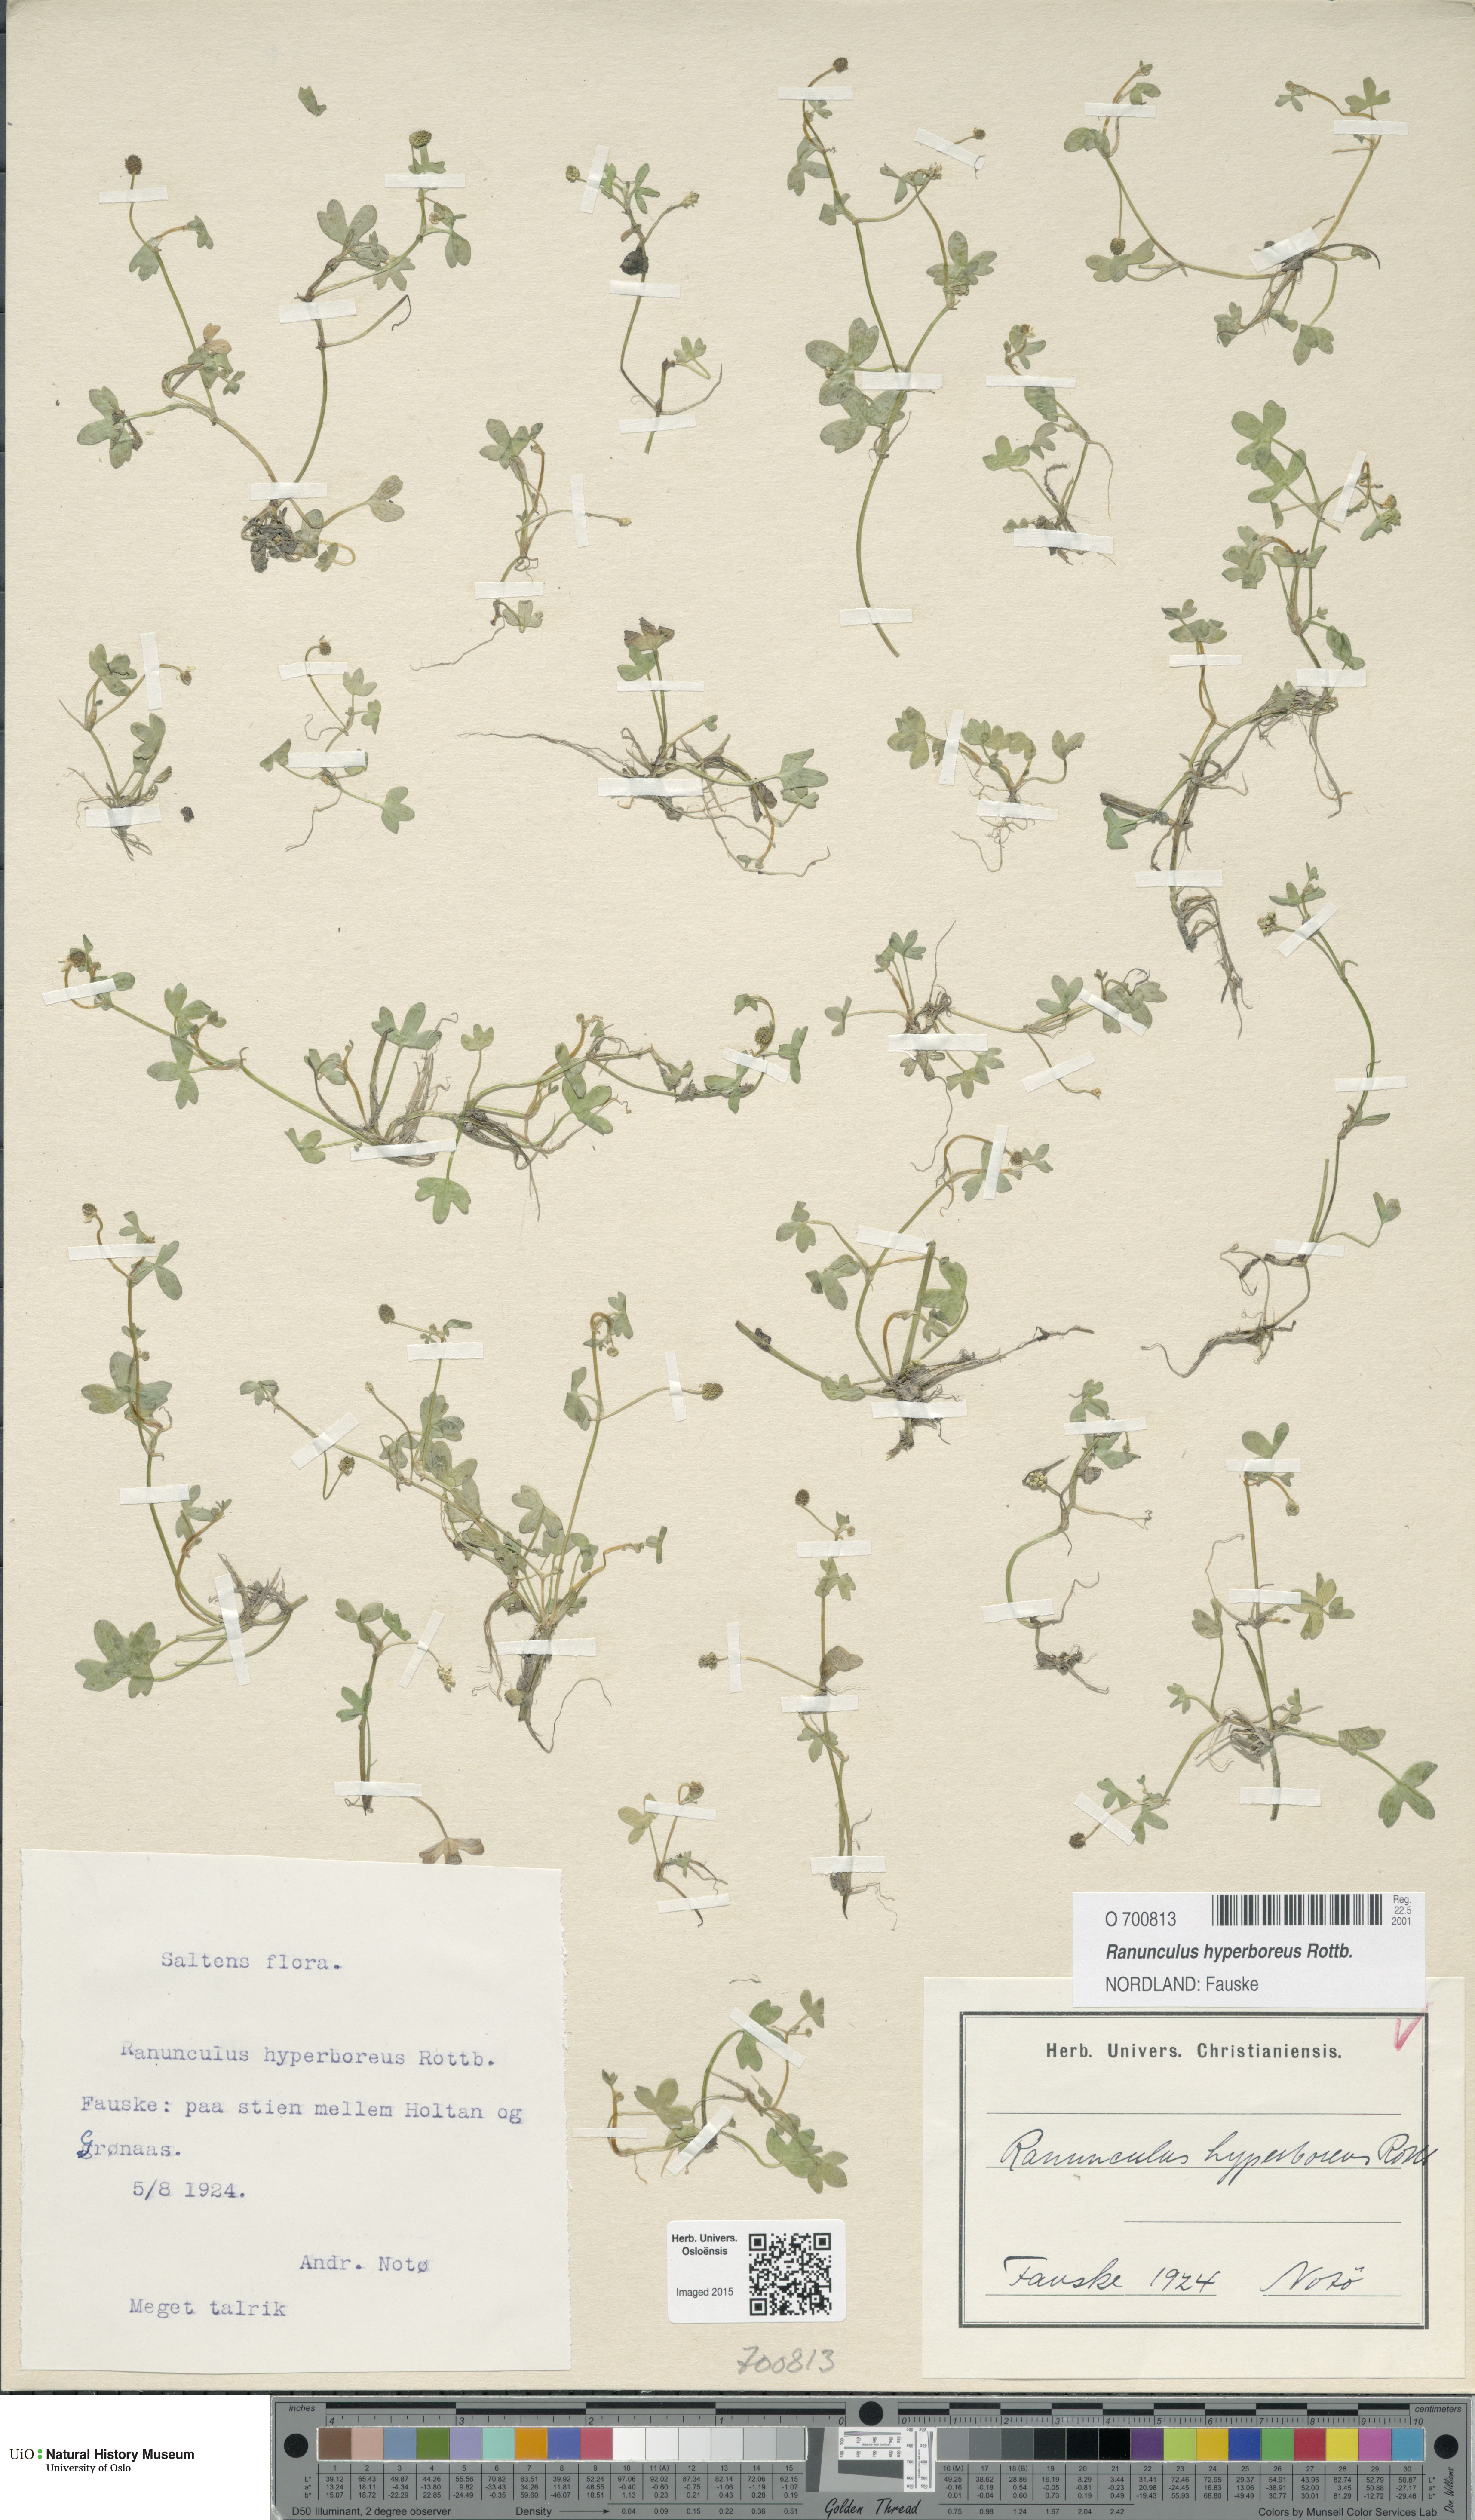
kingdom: Plantae
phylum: Tracheophyta
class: Magnoliopsida
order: Ranunculales
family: Ranunculaceae
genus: Ranunculus
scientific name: Ranunculus hyperboreus
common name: Arctic buttercup
